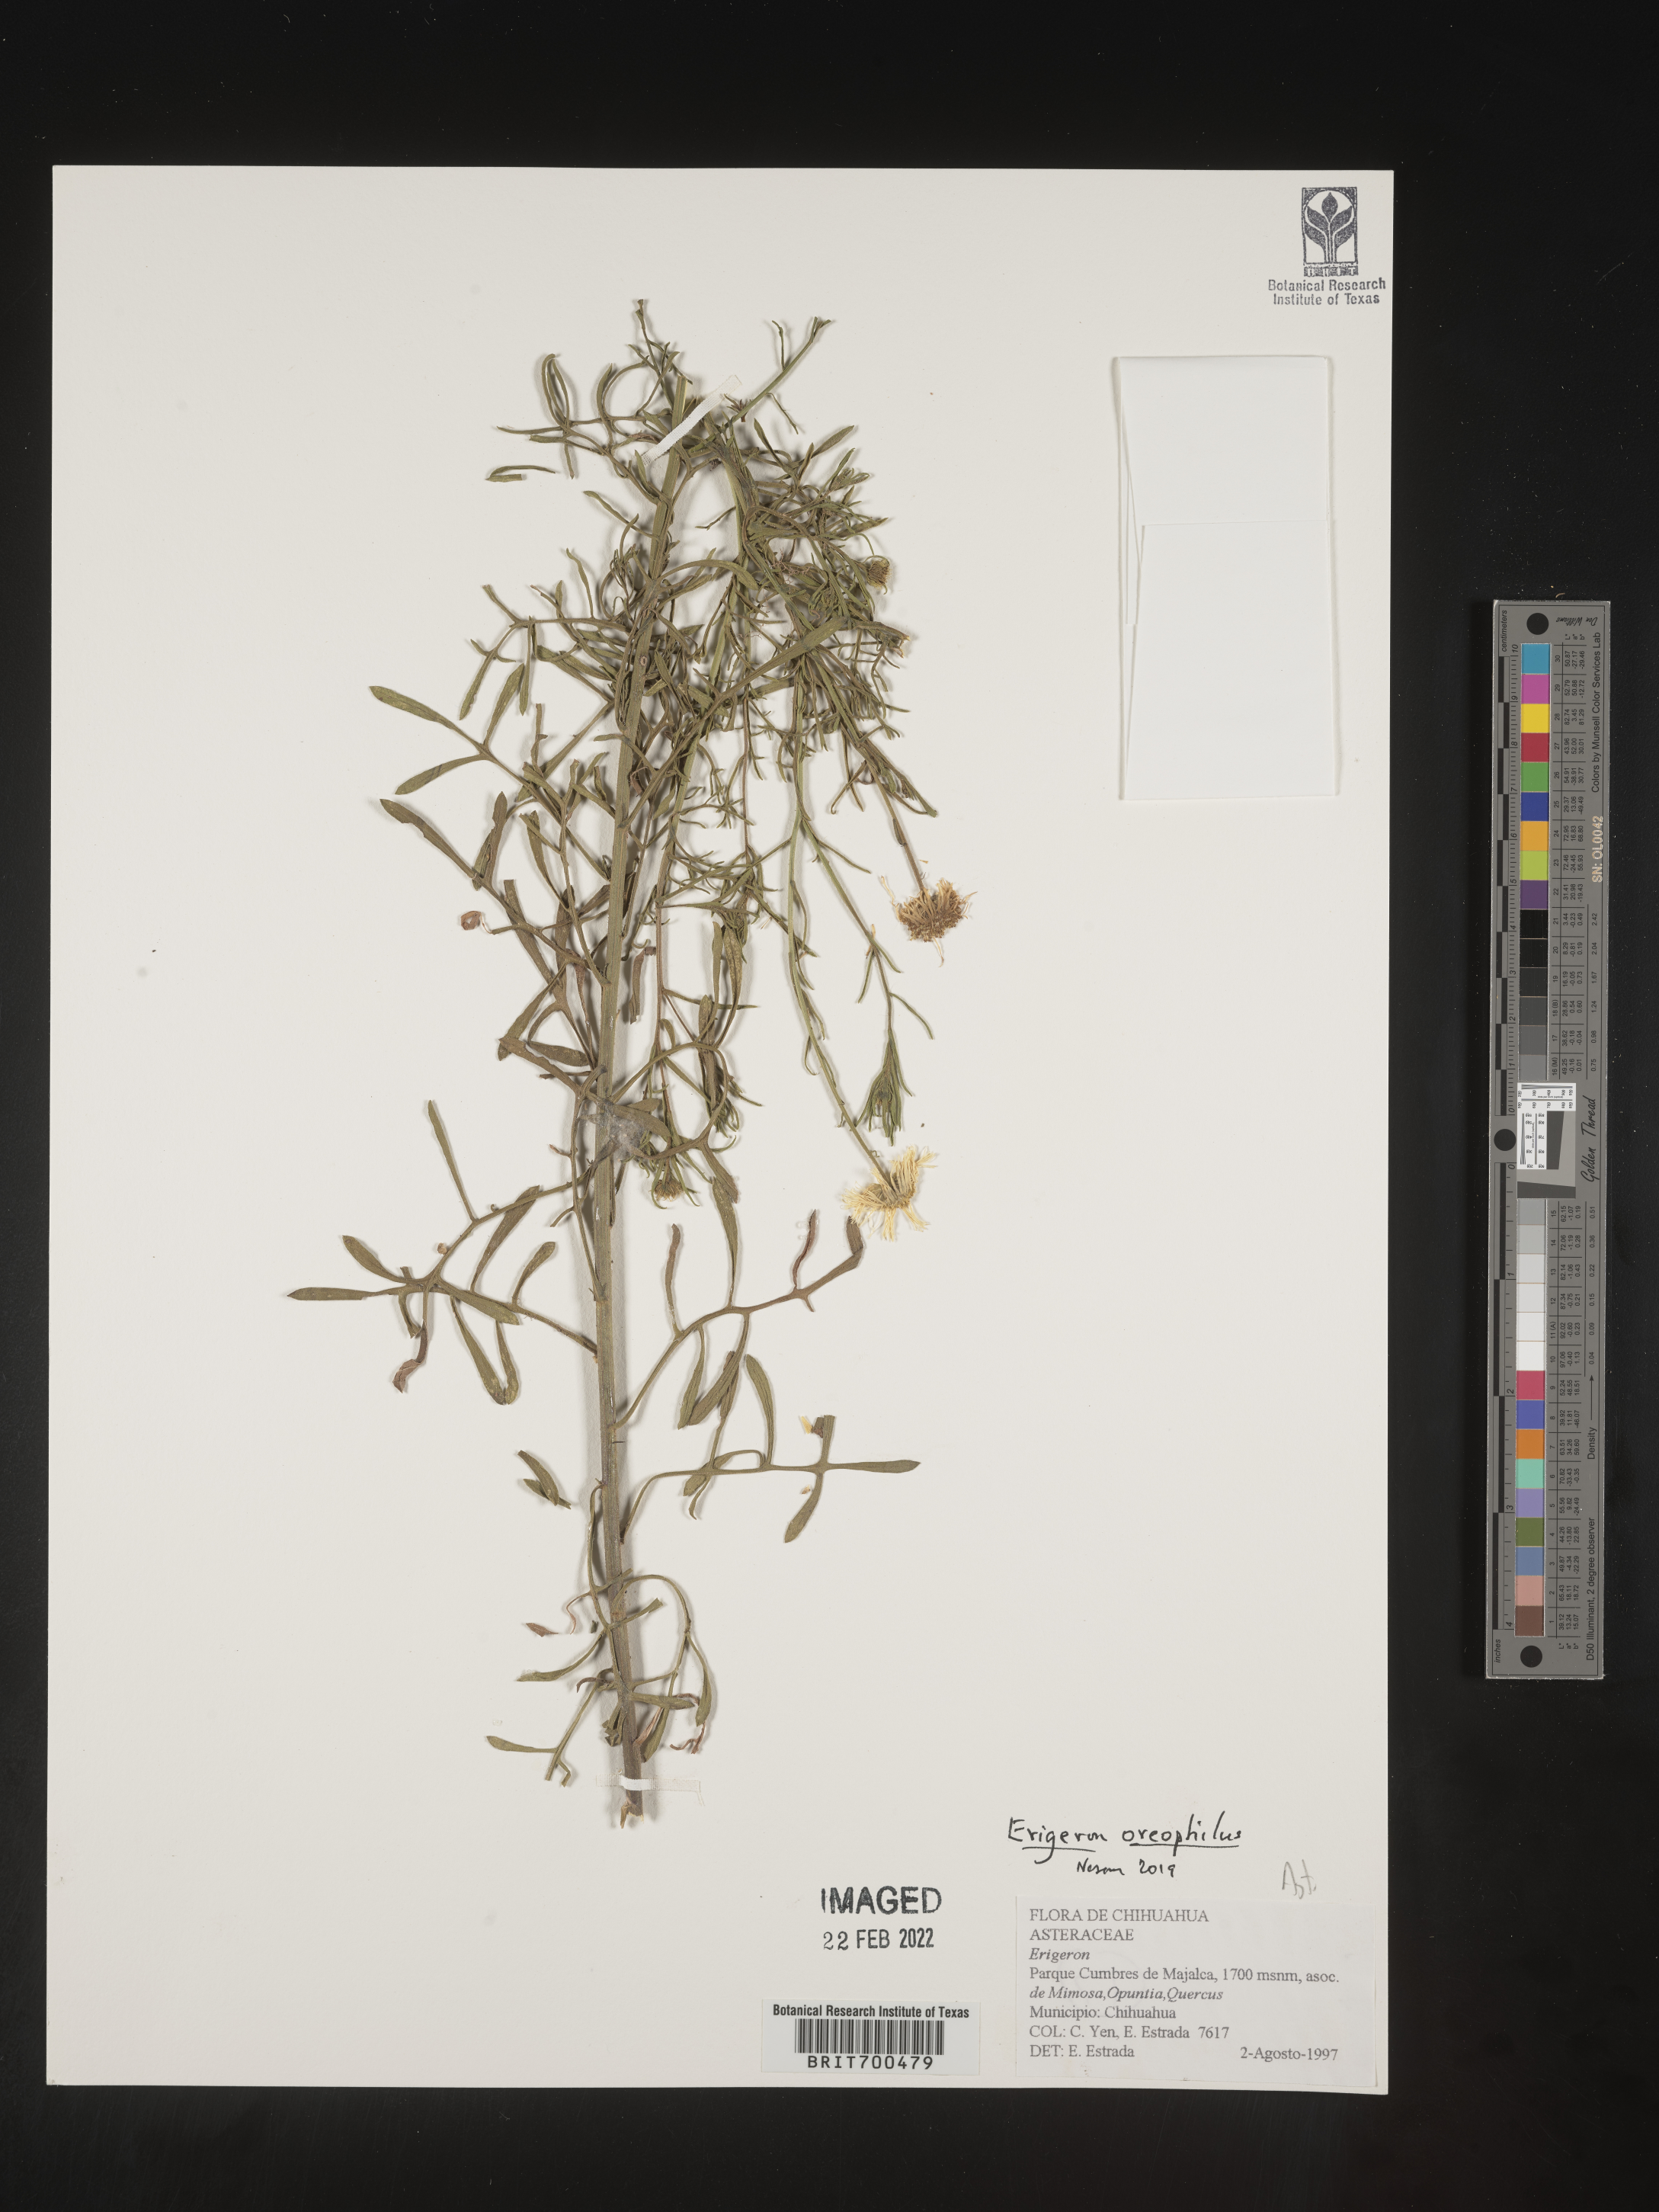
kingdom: Plantae
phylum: Tracheophyta
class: Magnoliopsida
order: Asterales
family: Asteraceae
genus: Erigeron
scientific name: Erigeron
